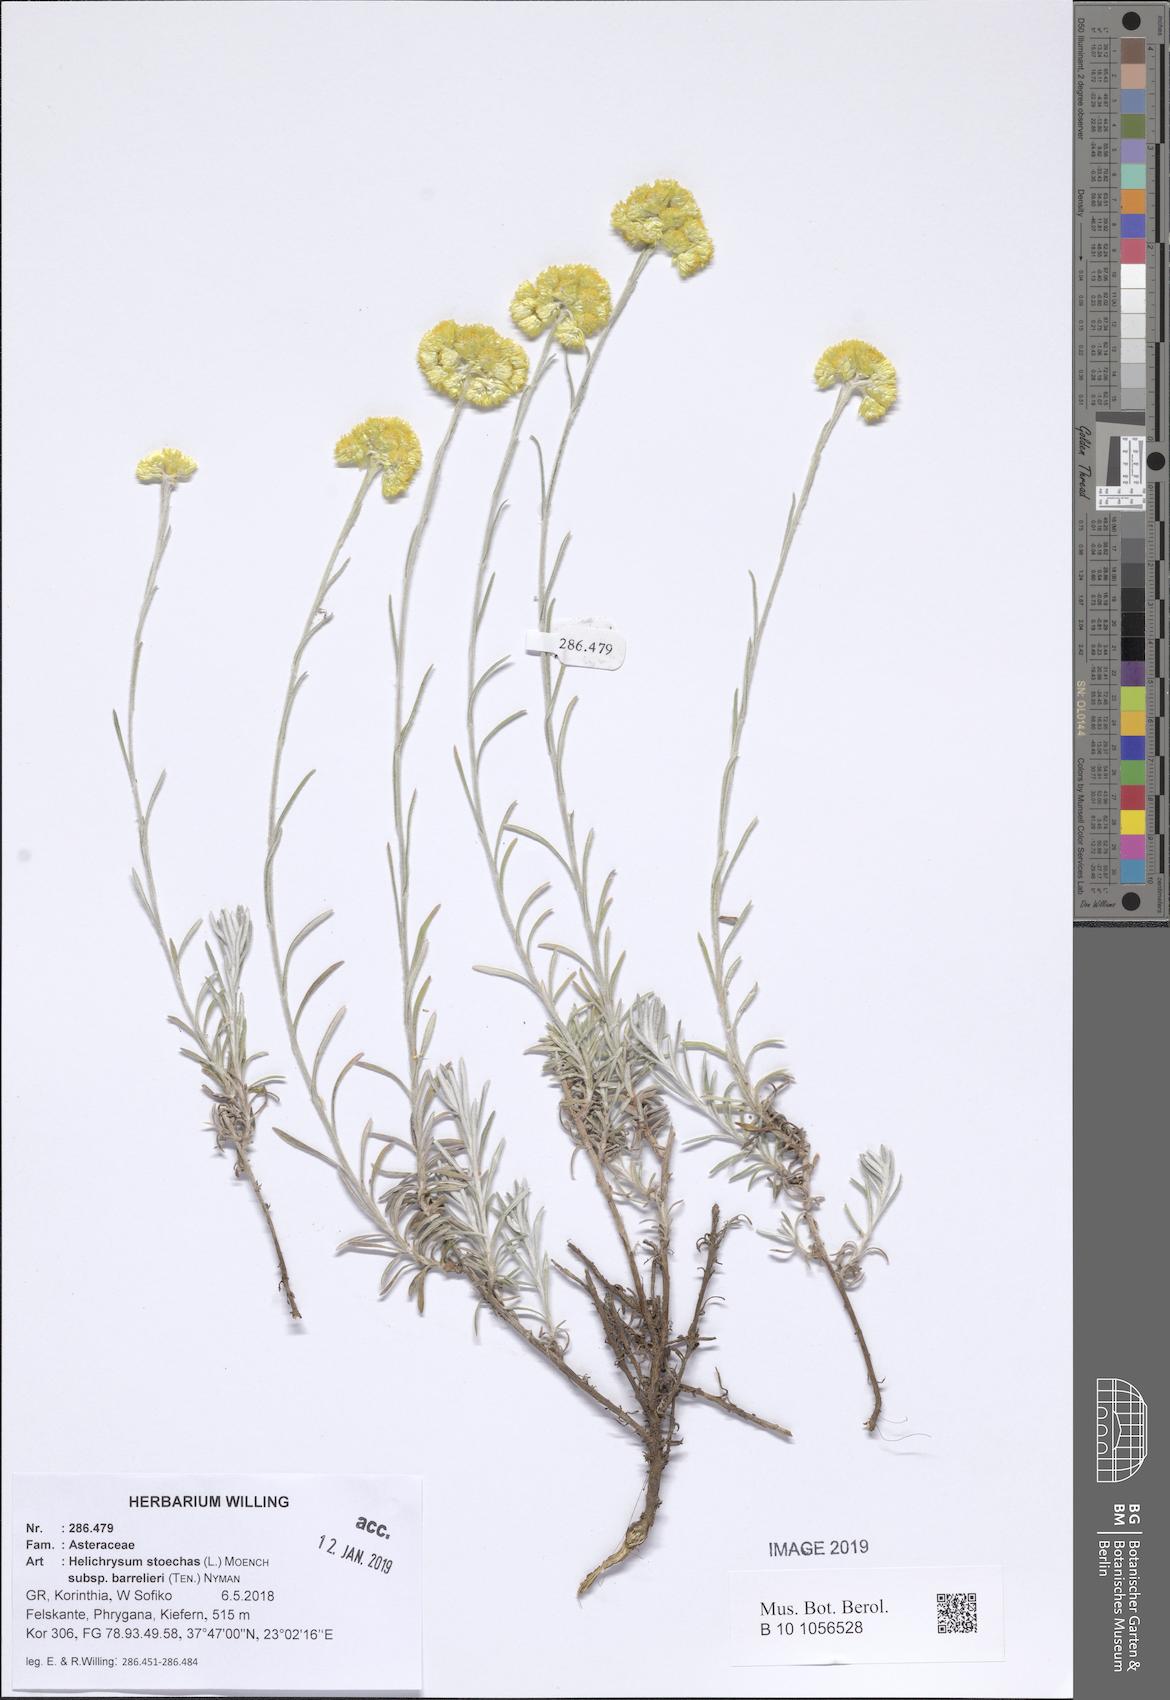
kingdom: Plantae
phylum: Tracheophyta
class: Magnoliopsida
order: Asterales
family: Asteraceae
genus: Helichrysum
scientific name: Helichrysum stoechas
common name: Goldilocks
